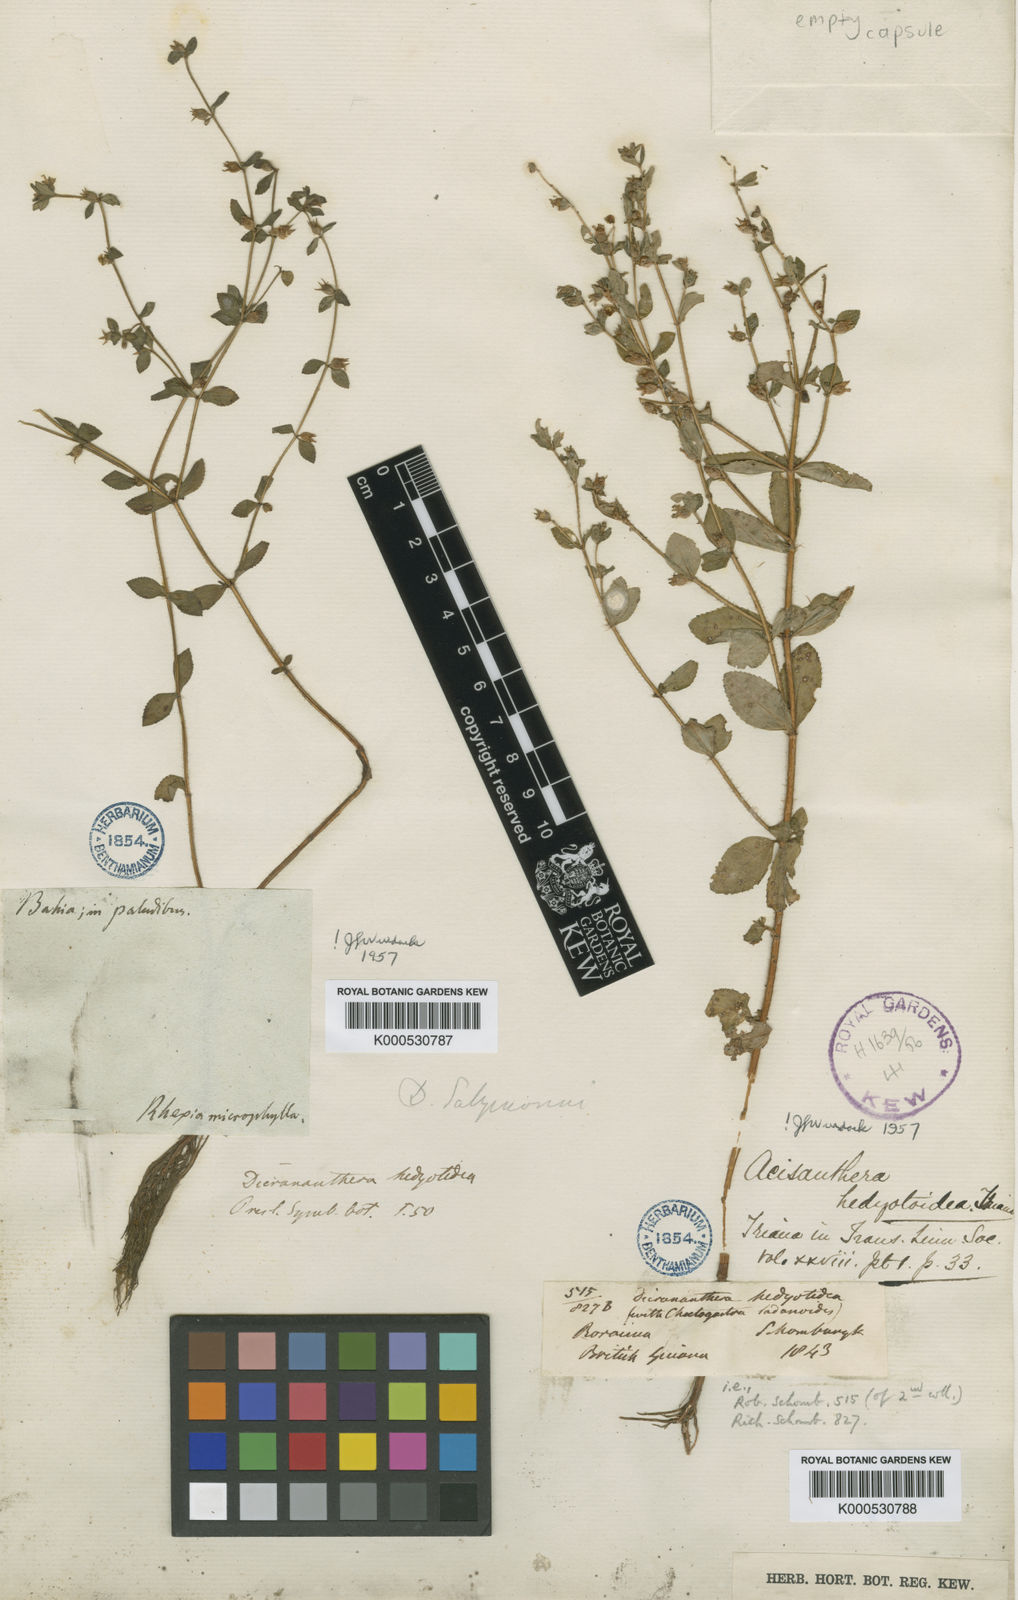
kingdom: Plantae
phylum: Tracheophyta
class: Magnoliopsida
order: Myrtales
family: Melastomataceae
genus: Acisanthera
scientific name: Acisanthera hedyotoidea
